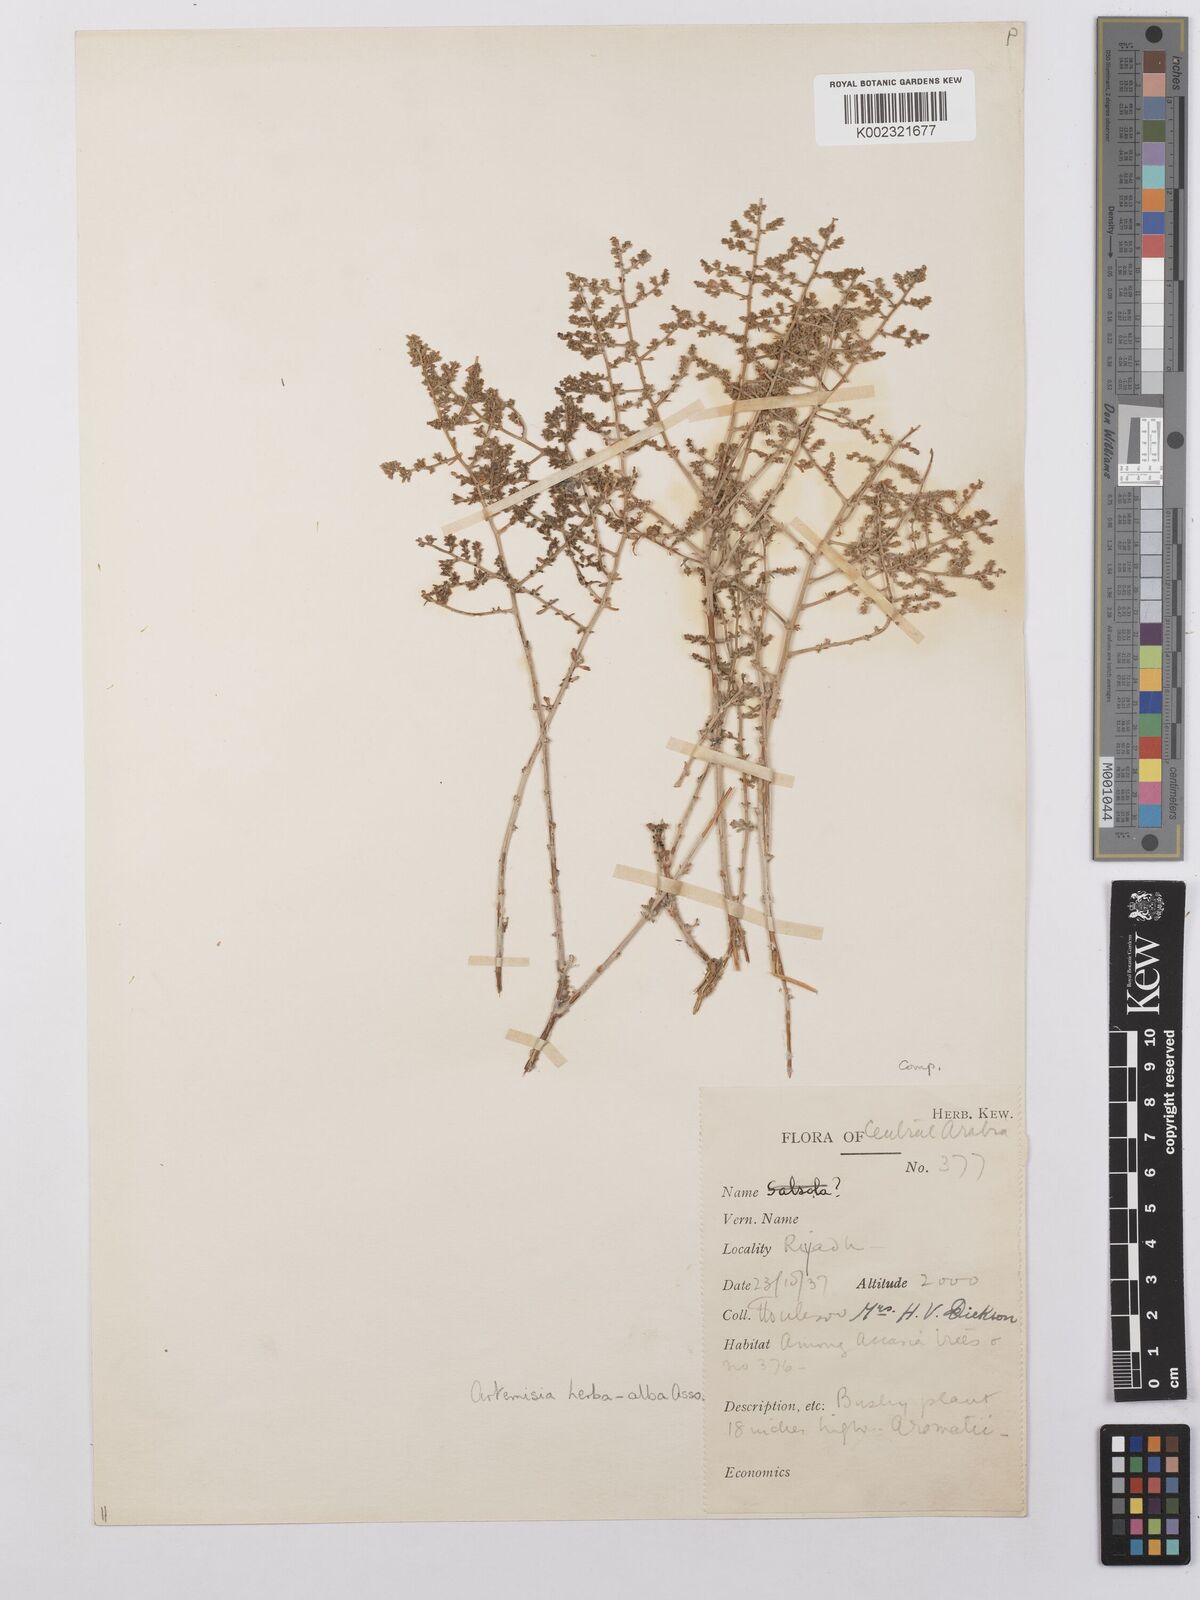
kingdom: Plantae
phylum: Tracheophyta
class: Magnoliopsida
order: Asterales
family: Asteraceae
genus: Artemisia
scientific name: Artemisia herba-alba
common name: White wormwood
